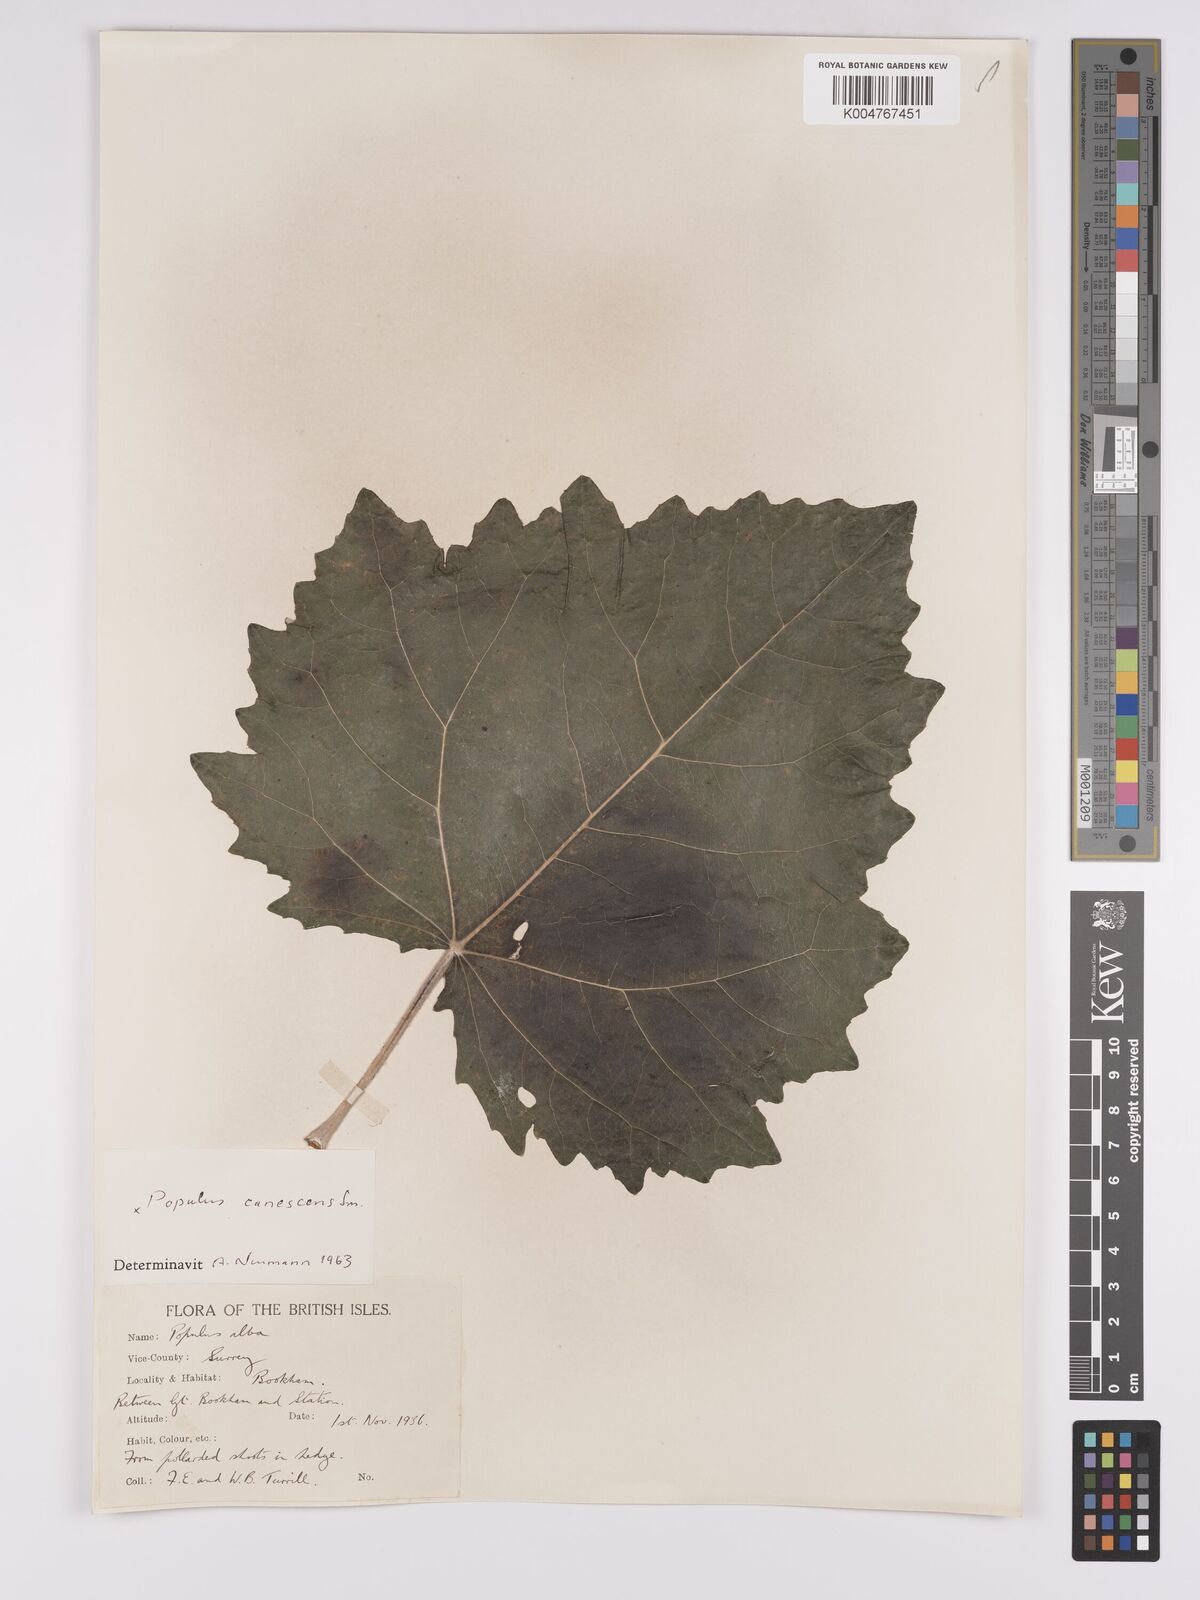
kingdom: Plantae
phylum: Tracheophyta
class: Magnoliopsida
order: Malpighiales
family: Salicaceae
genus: Populus
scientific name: Populus canescens
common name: Gray poplar
